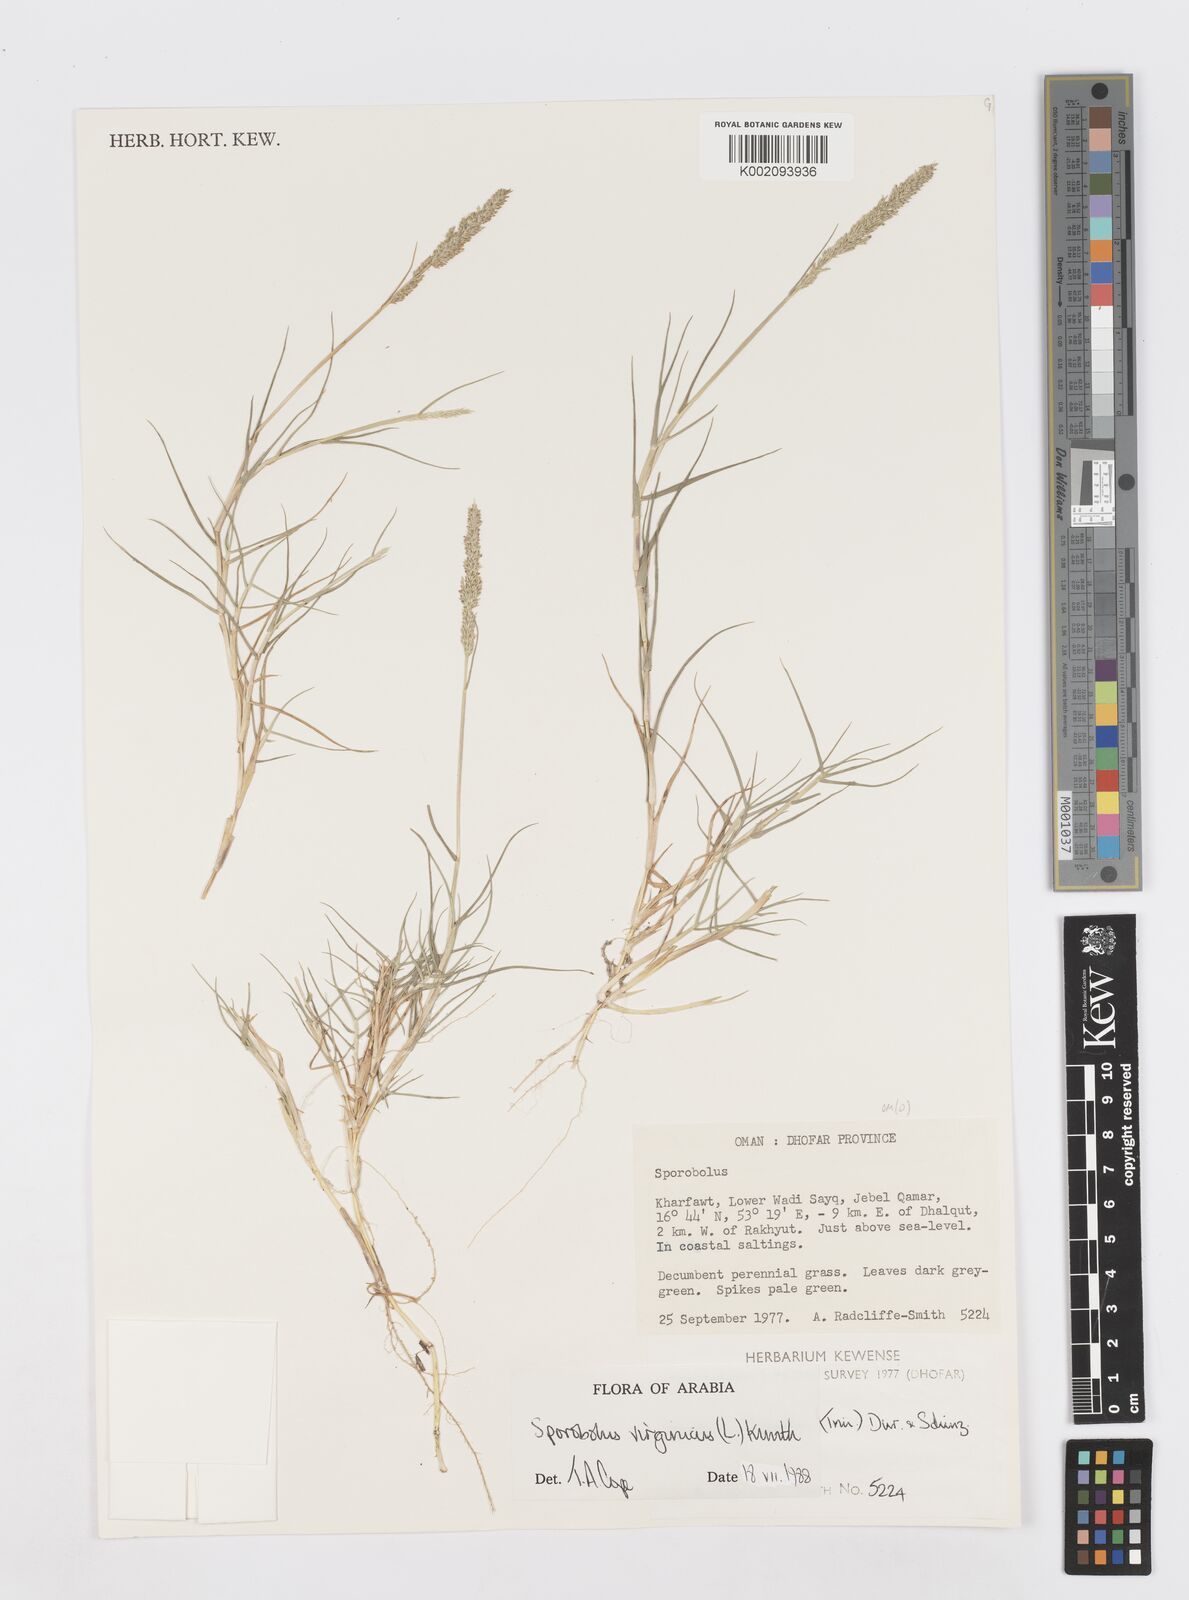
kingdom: Plantae
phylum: Tracheophyta
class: Liliopsida
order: Poales
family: Poaceae
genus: Sporobolus
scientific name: Sporobolus virginicus
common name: Beach dropseed
